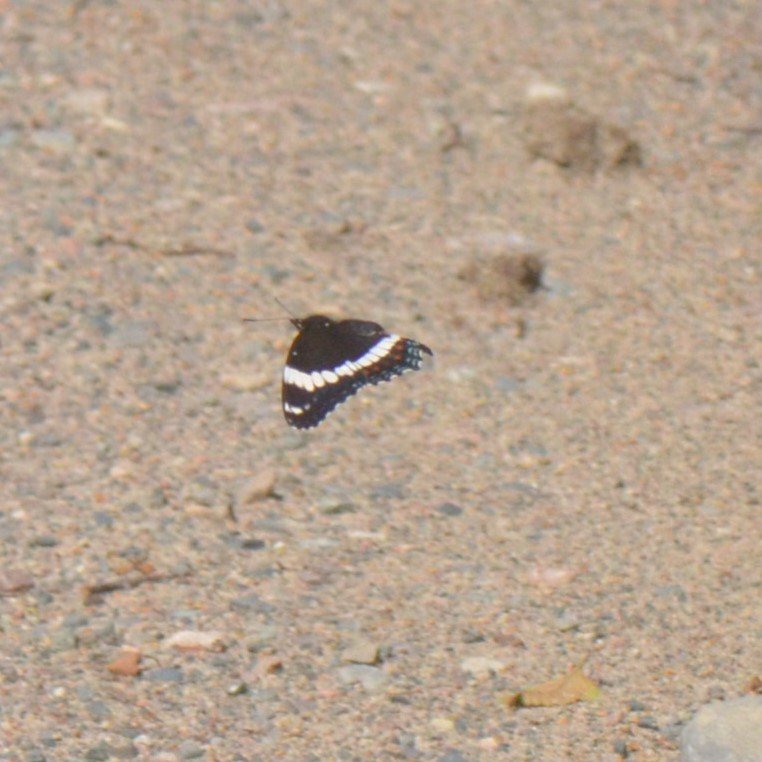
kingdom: Animalia
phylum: Arthropoda
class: Insecta
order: Lepidoptera
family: Nymphalidae
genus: Limenitis
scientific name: Limenitis arthemis
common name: Red-spotted Admiral
